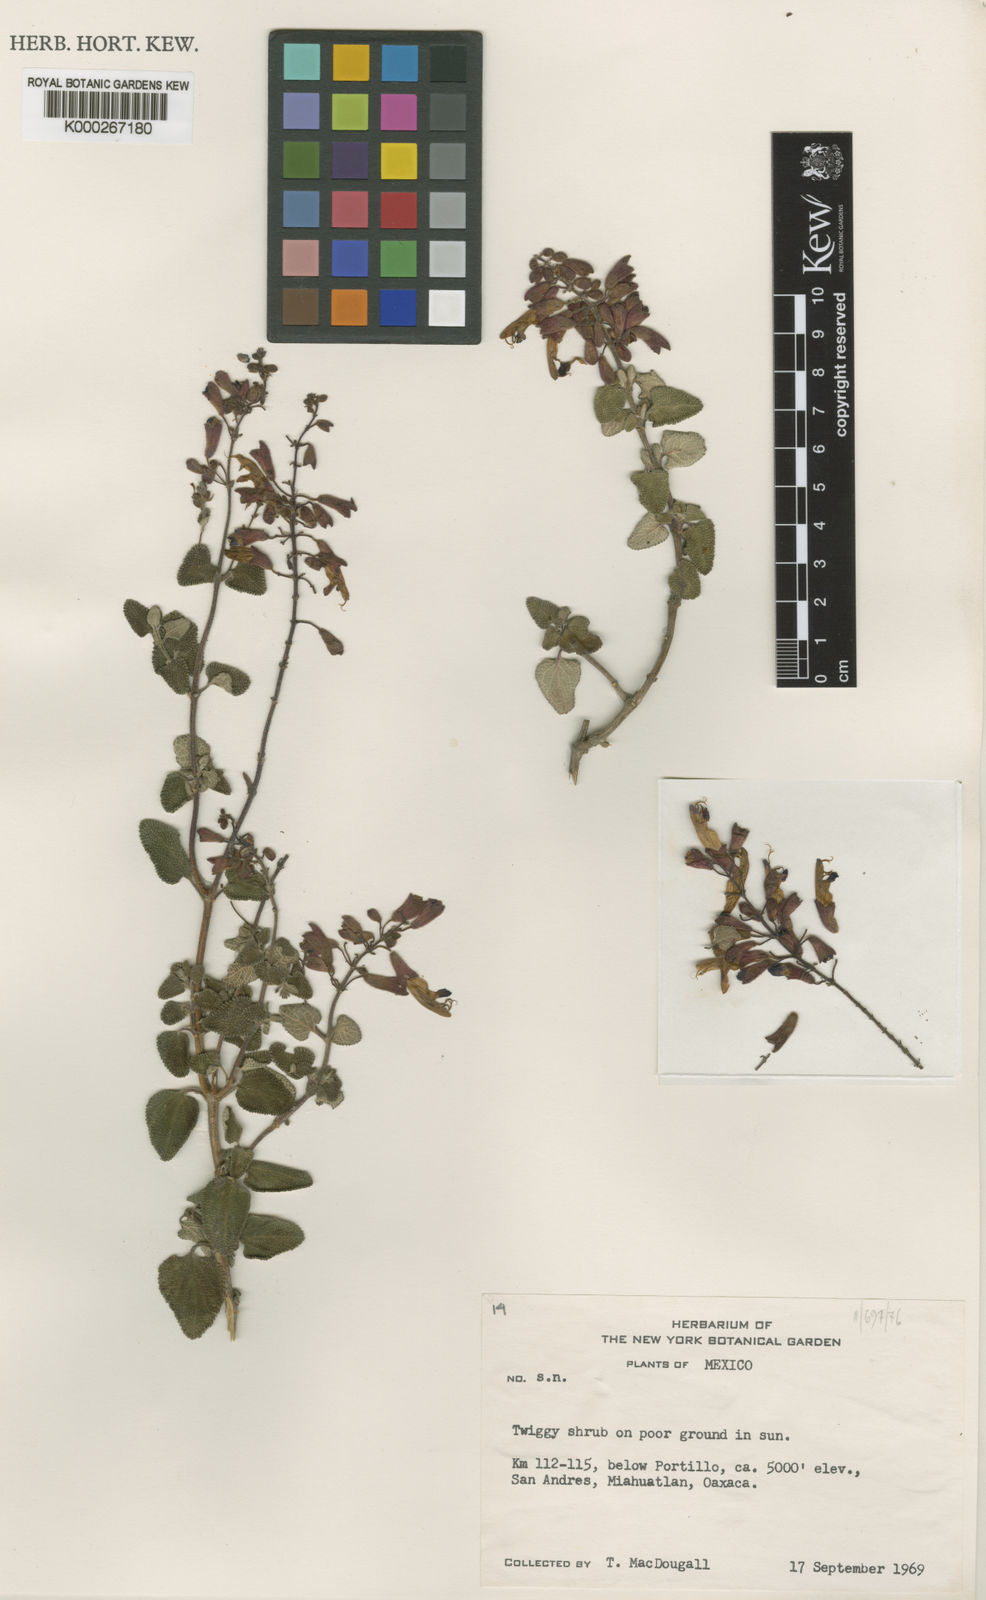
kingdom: Plantae
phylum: Tracheophyta
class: Magnoliopsida
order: Lamiales
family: Lamiaceae
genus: Salvia
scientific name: Salvia semiatrata
